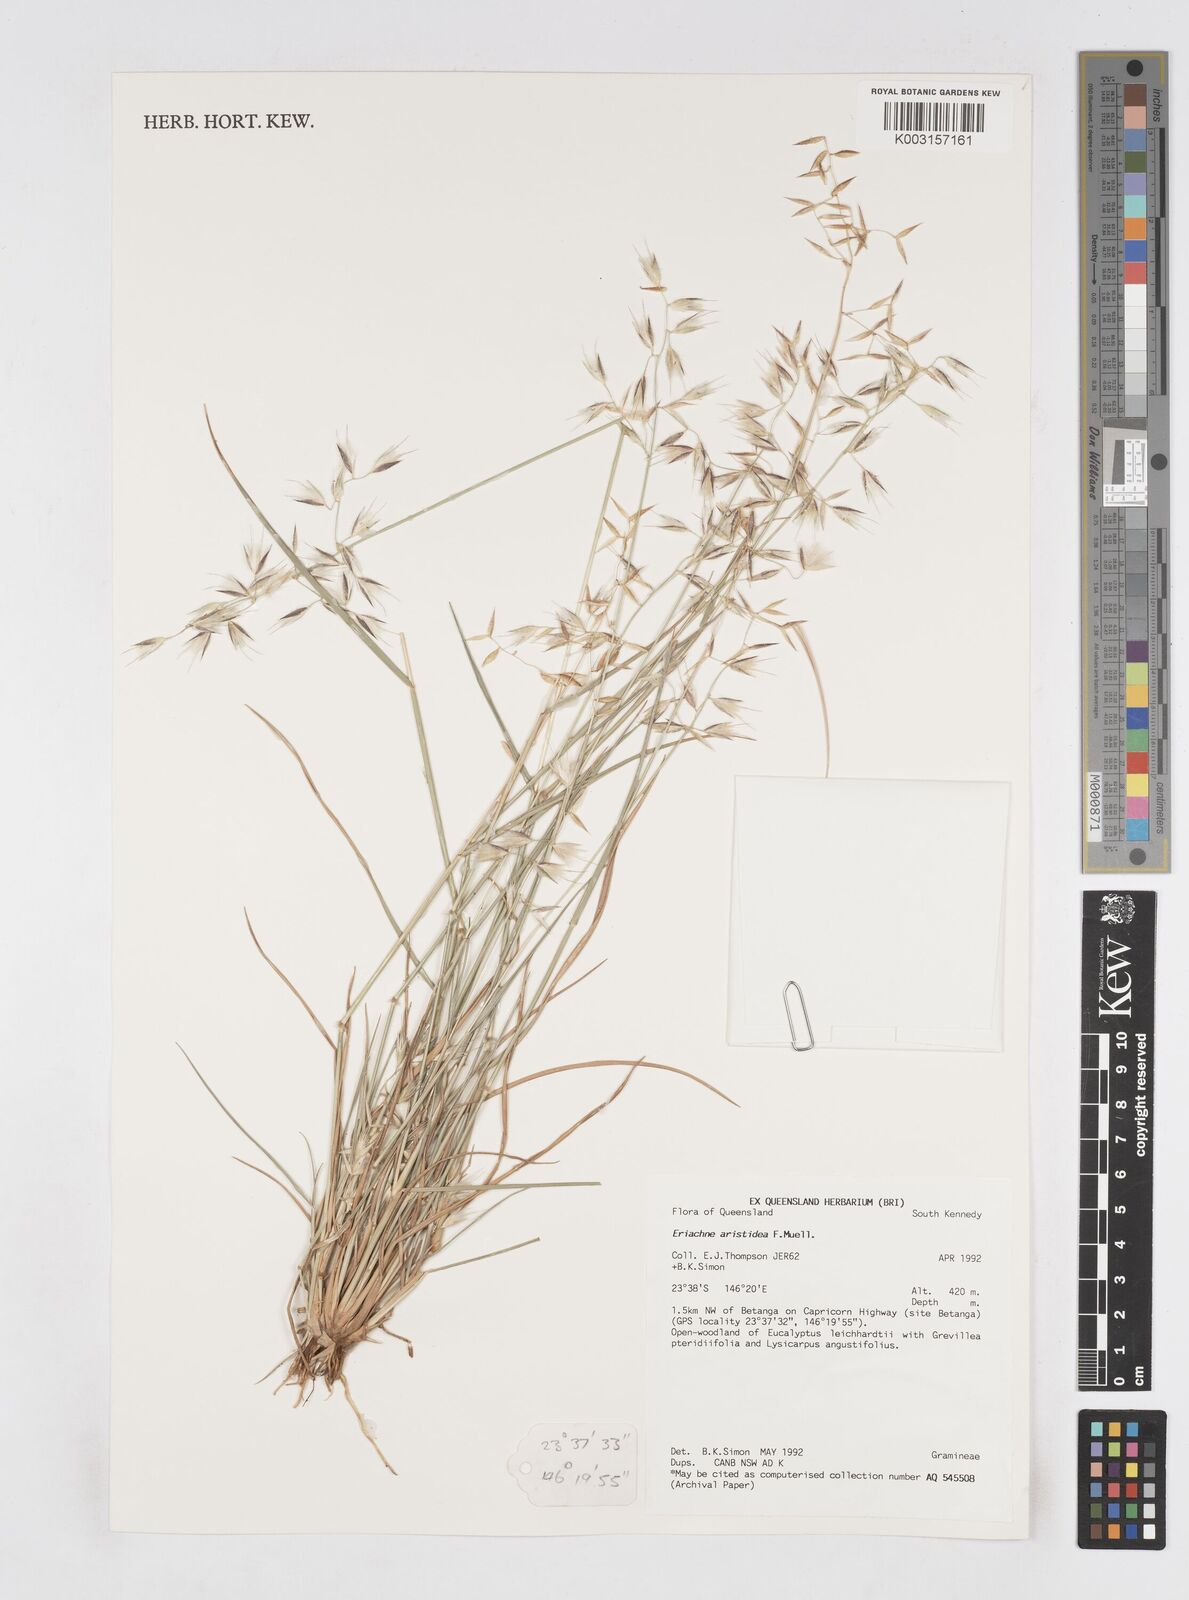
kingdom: Plantae
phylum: Tracheophyta
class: Liliopsida
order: Poales
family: Poaceae
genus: Eriachne
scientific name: Eriachne aristidea
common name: Three-awn wanderrie grass
